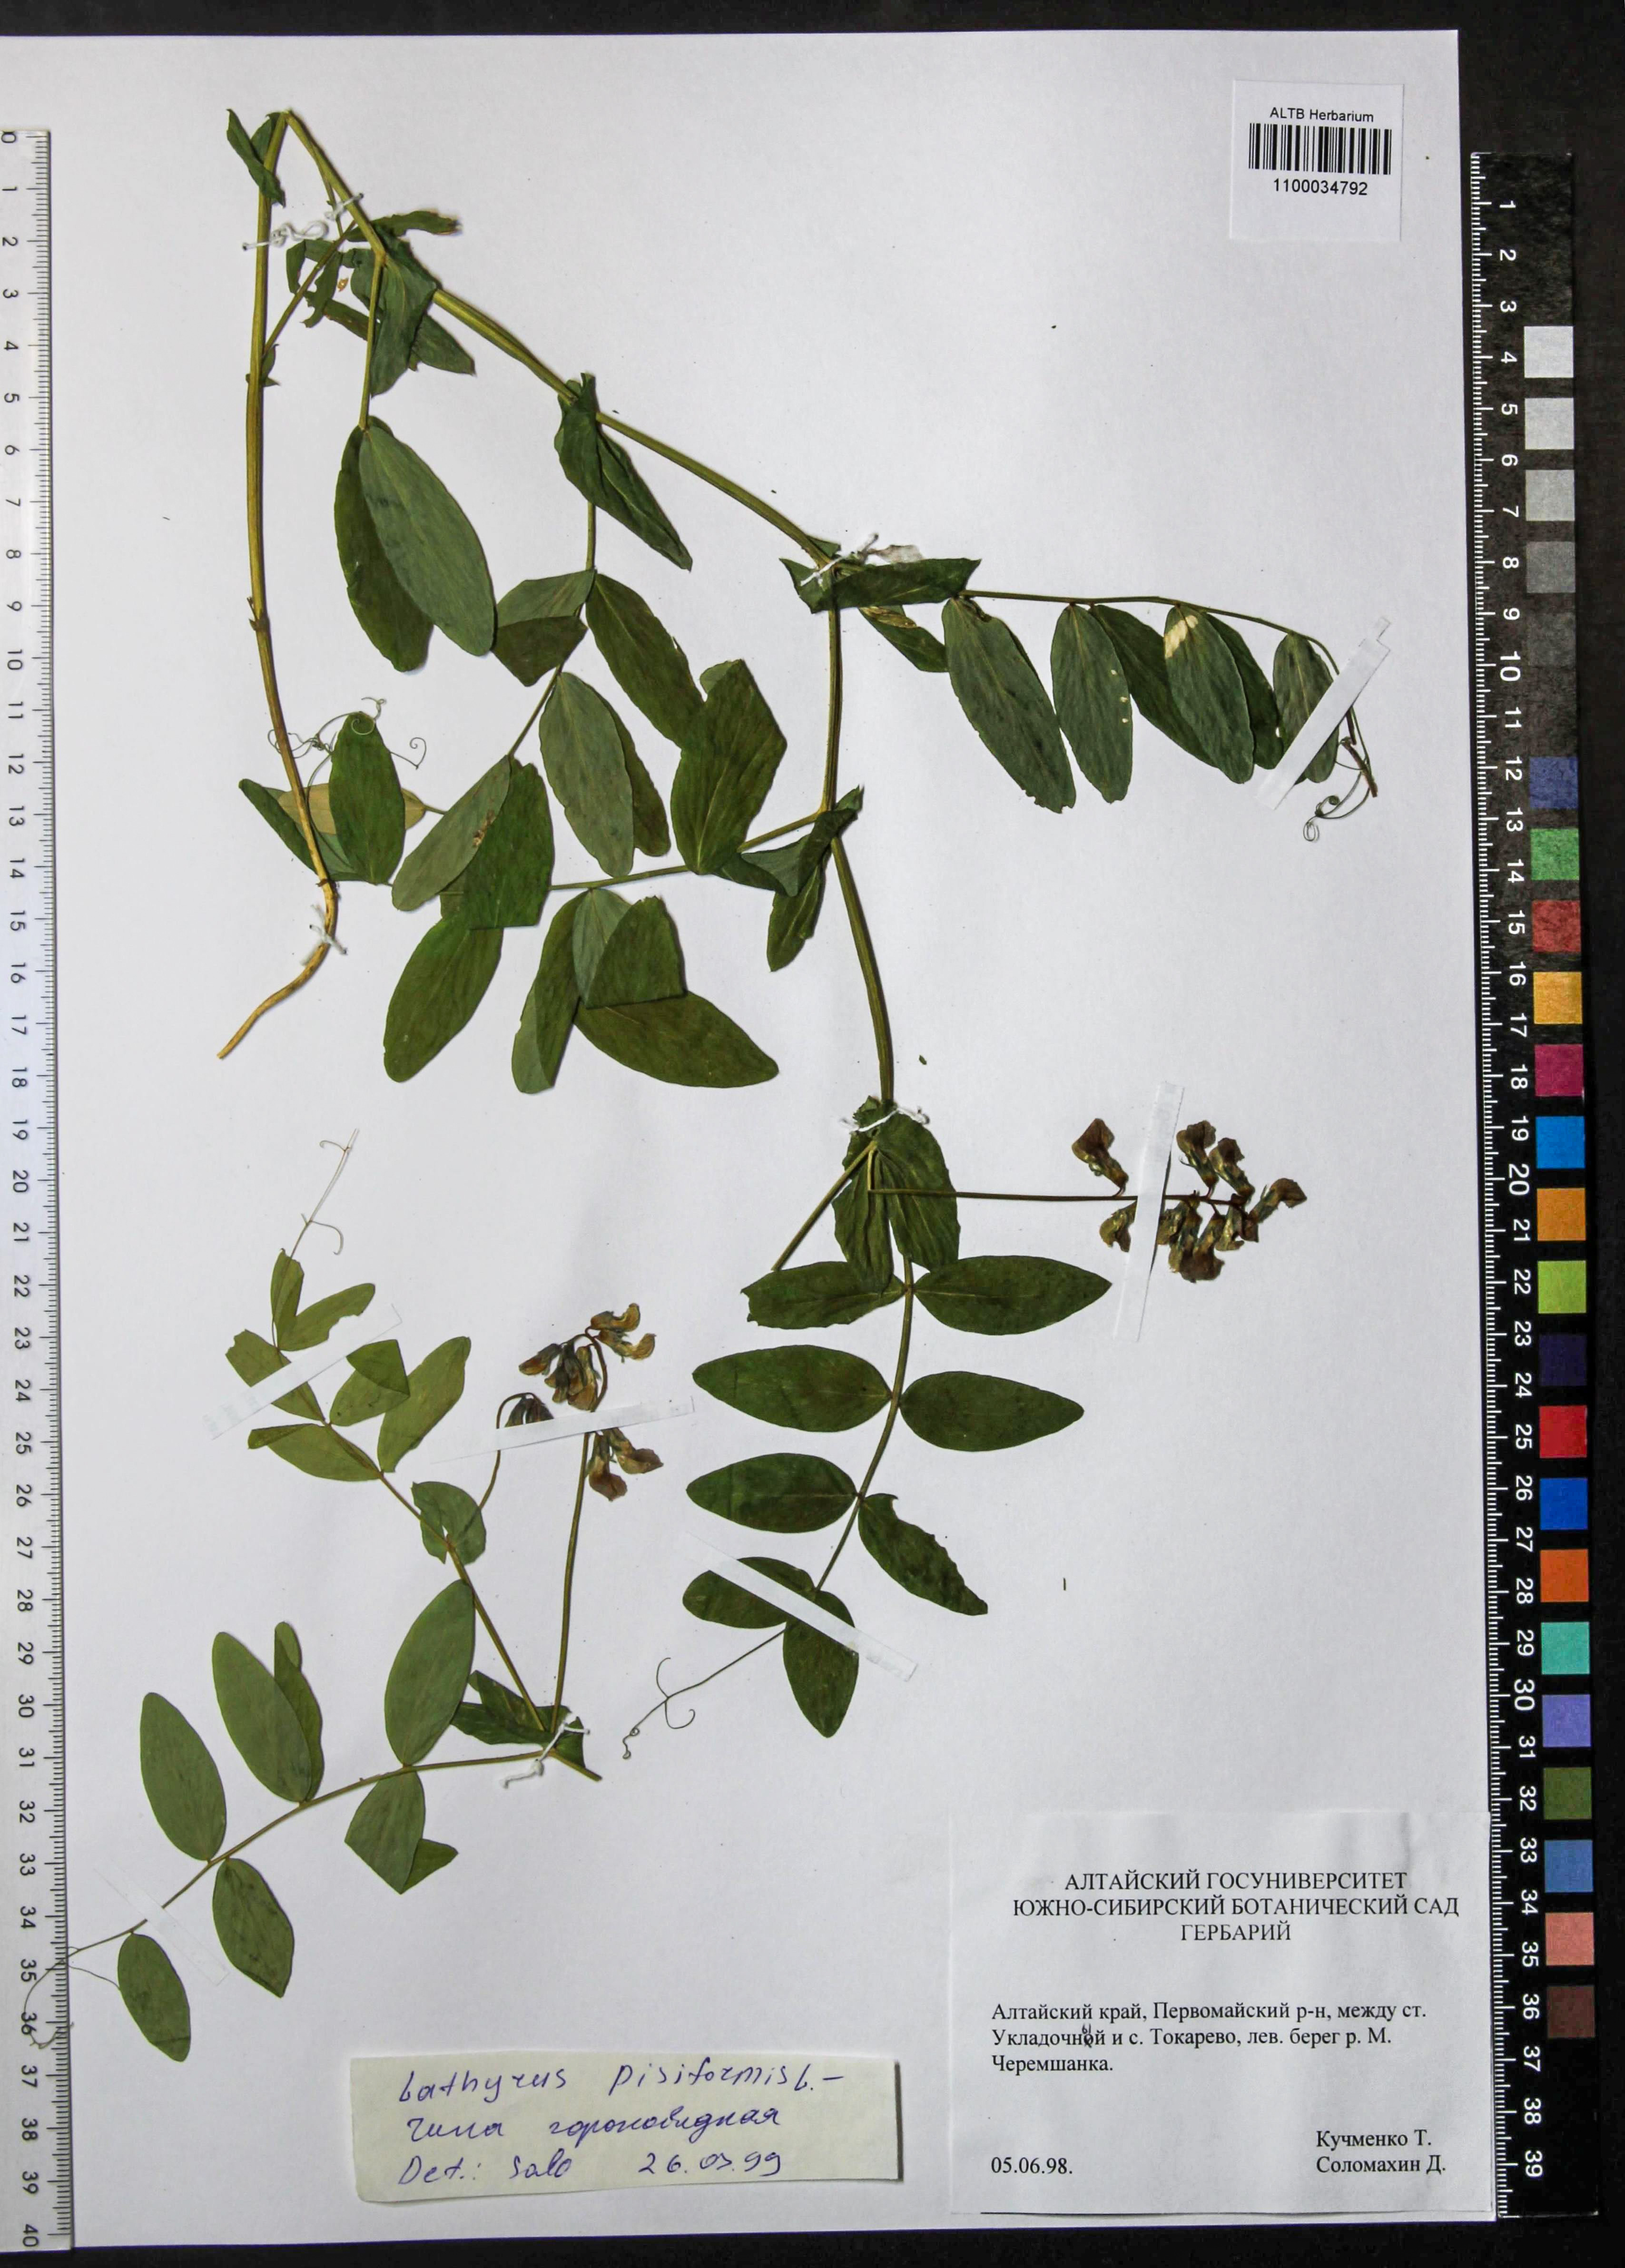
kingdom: Plantae
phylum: Tracheophyta
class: Magnoliopsida
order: Fabales
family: Fabaceae
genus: Lathyrus
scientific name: Lathyrus pisiformis
